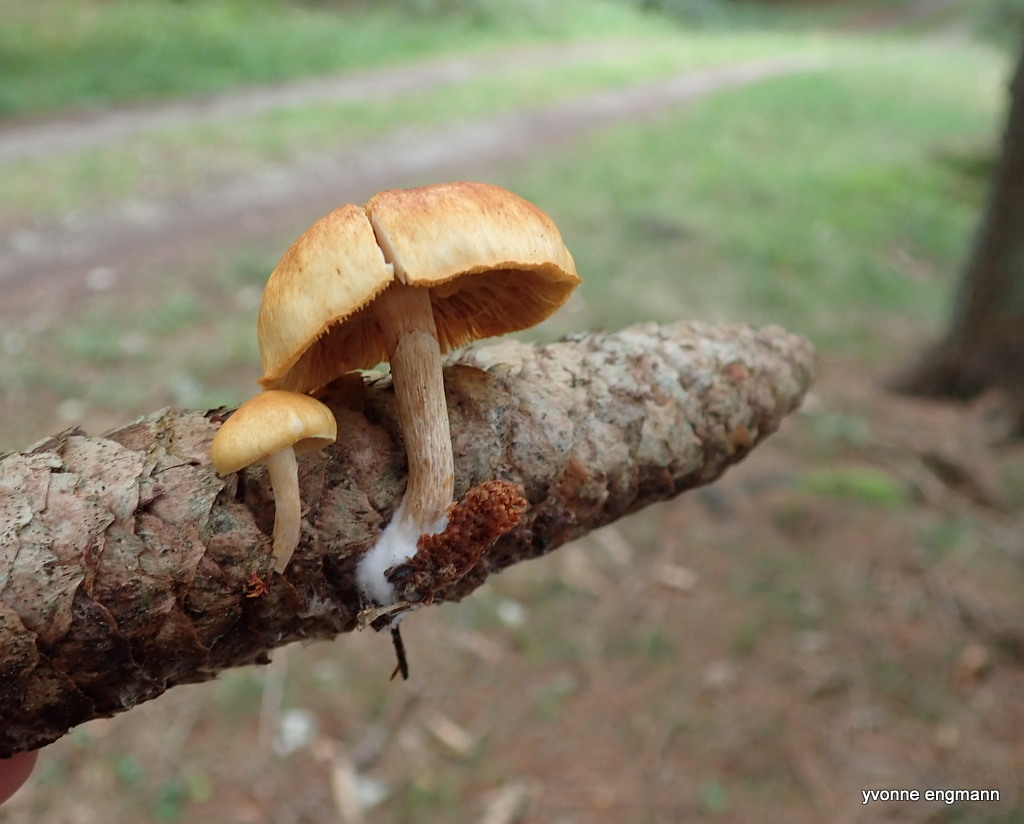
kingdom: Fungi
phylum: Basidiomycota
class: Agaricomycetes
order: Agaricales
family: Hymenogastraceae
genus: Gymnopilus
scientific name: Gymnopilus penetrans
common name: plettet flammehat
